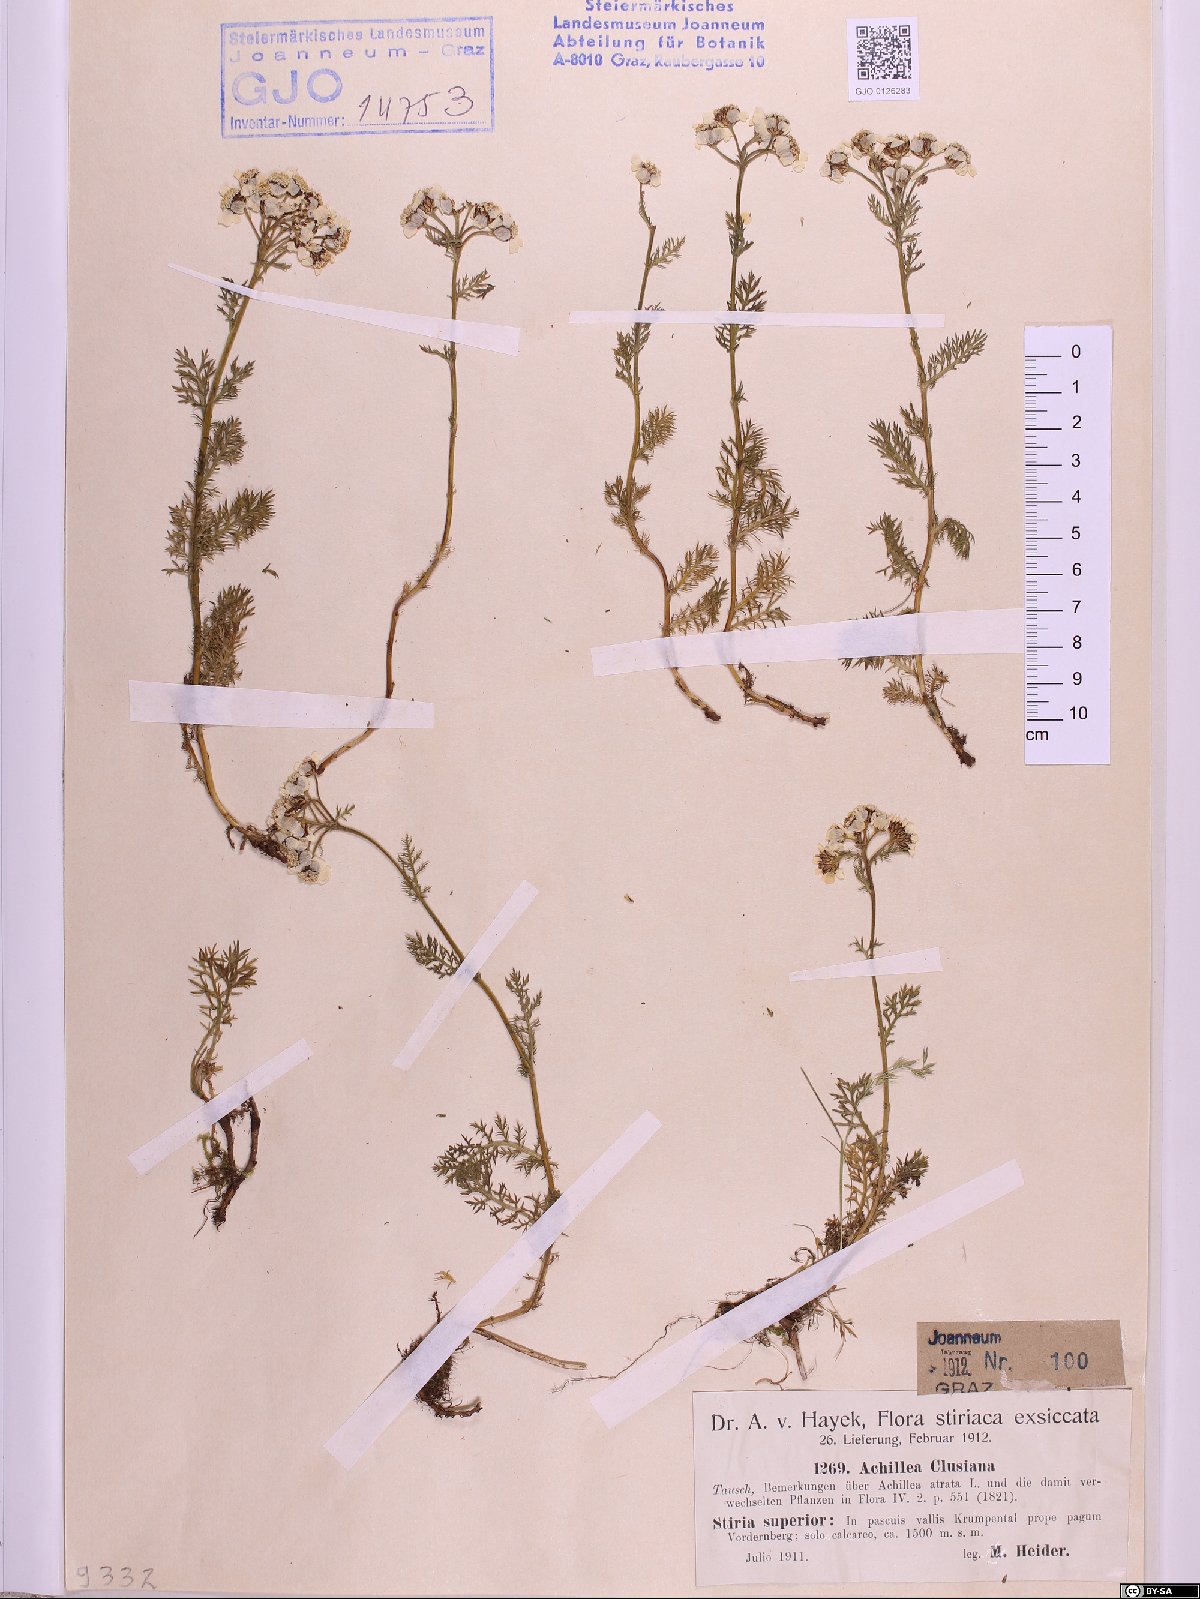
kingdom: Plantae
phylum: Tracheophyta
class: Magnoliopsida
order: Asterales
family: Asteraceae
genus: Achillea
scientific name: Achillea clusiana
